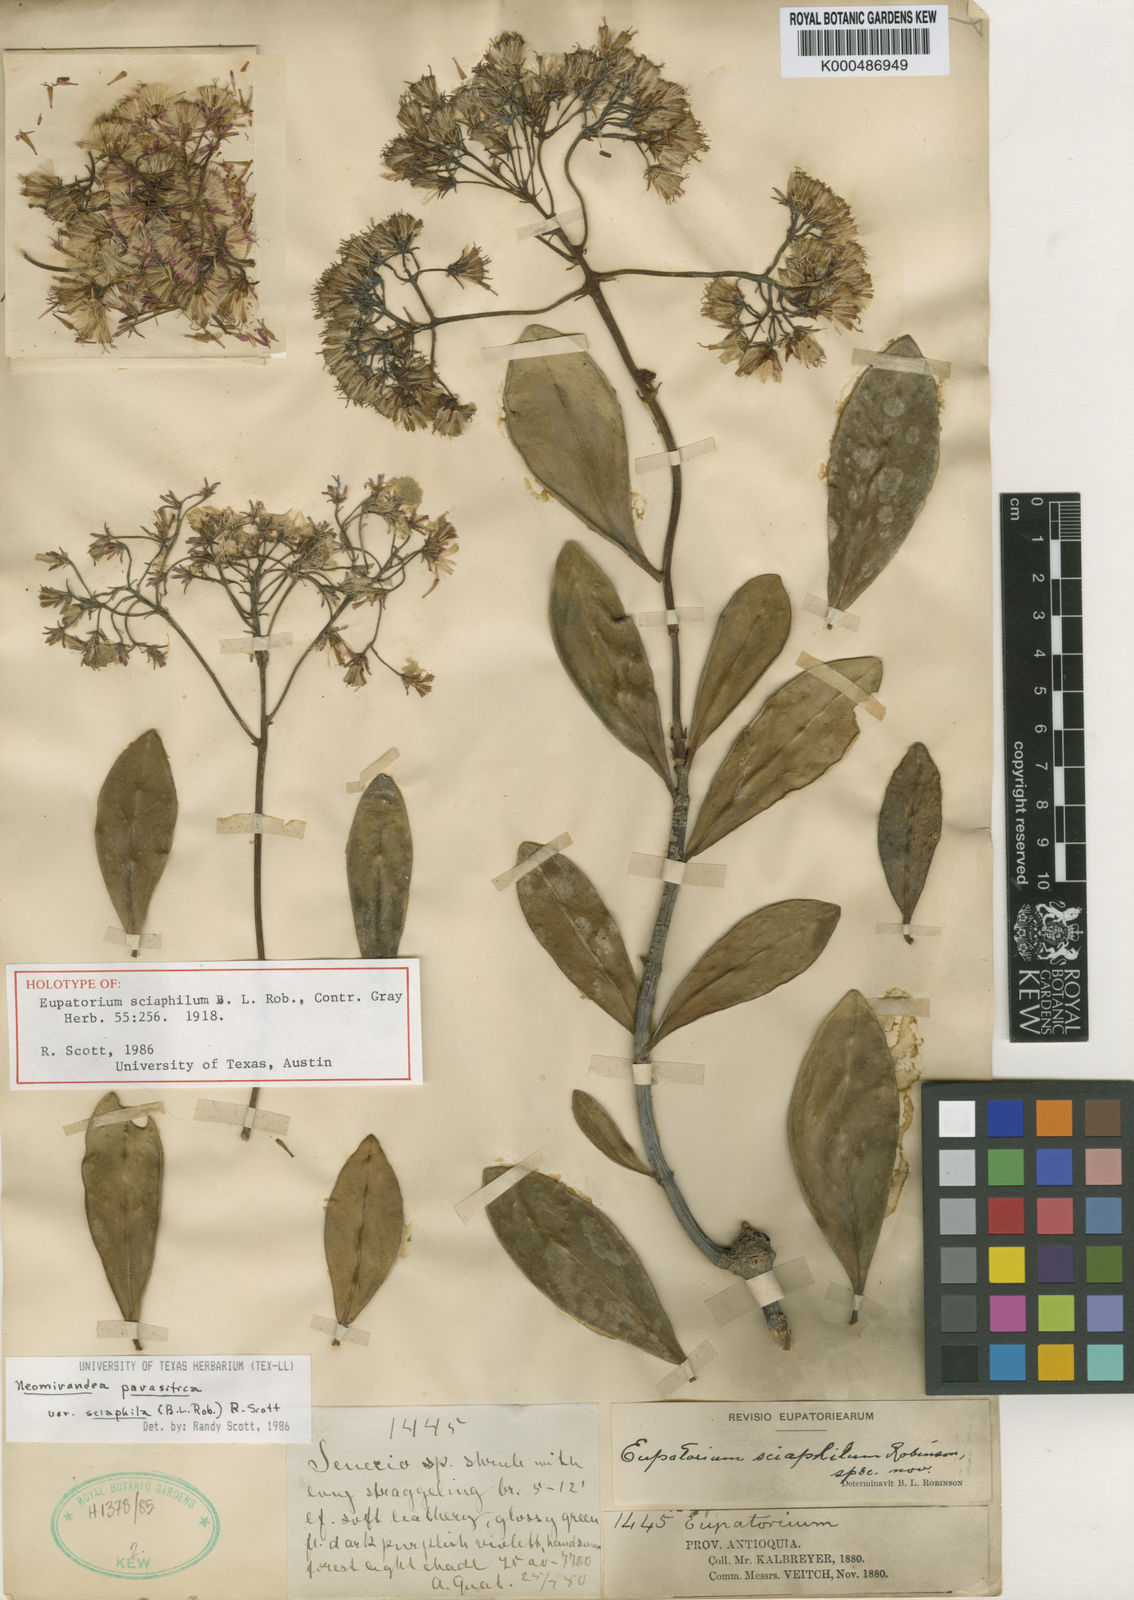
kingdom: Plantae
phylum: Tracheophyta
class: Magnoliopsida
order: Asterales
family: Asteraceae
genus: Neomirandea
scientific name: Neomirandea parasitica
